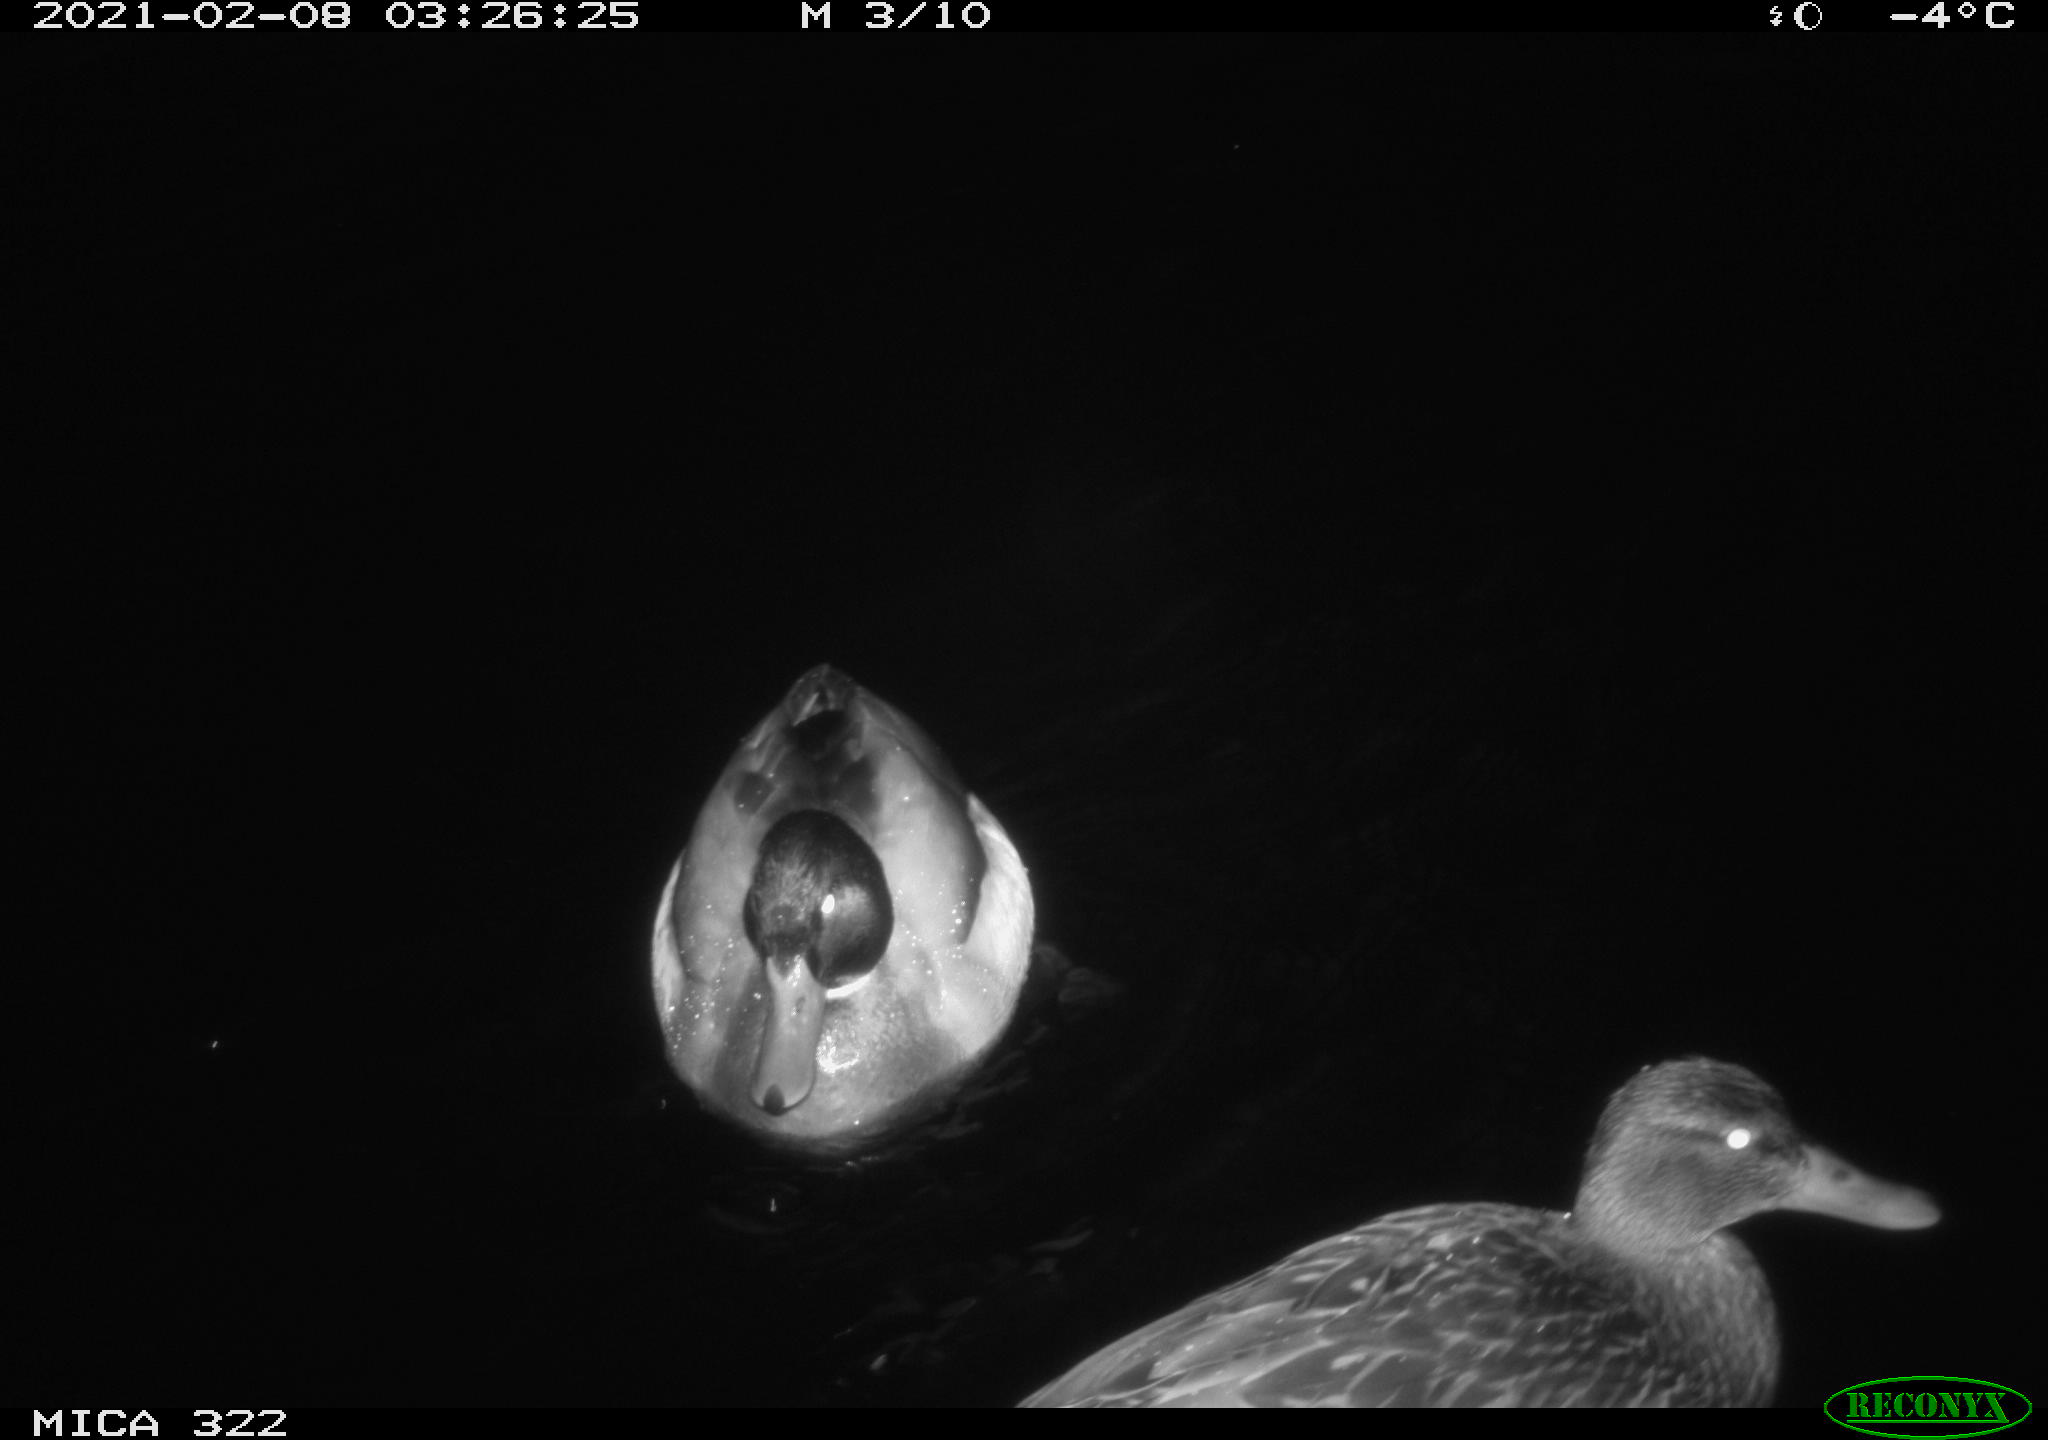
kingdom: Animalia
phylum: Chordata
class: Aves
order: Anseriformes
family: Anatidae
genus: Mareca
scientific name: Mareca strepera
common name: Gadwall
